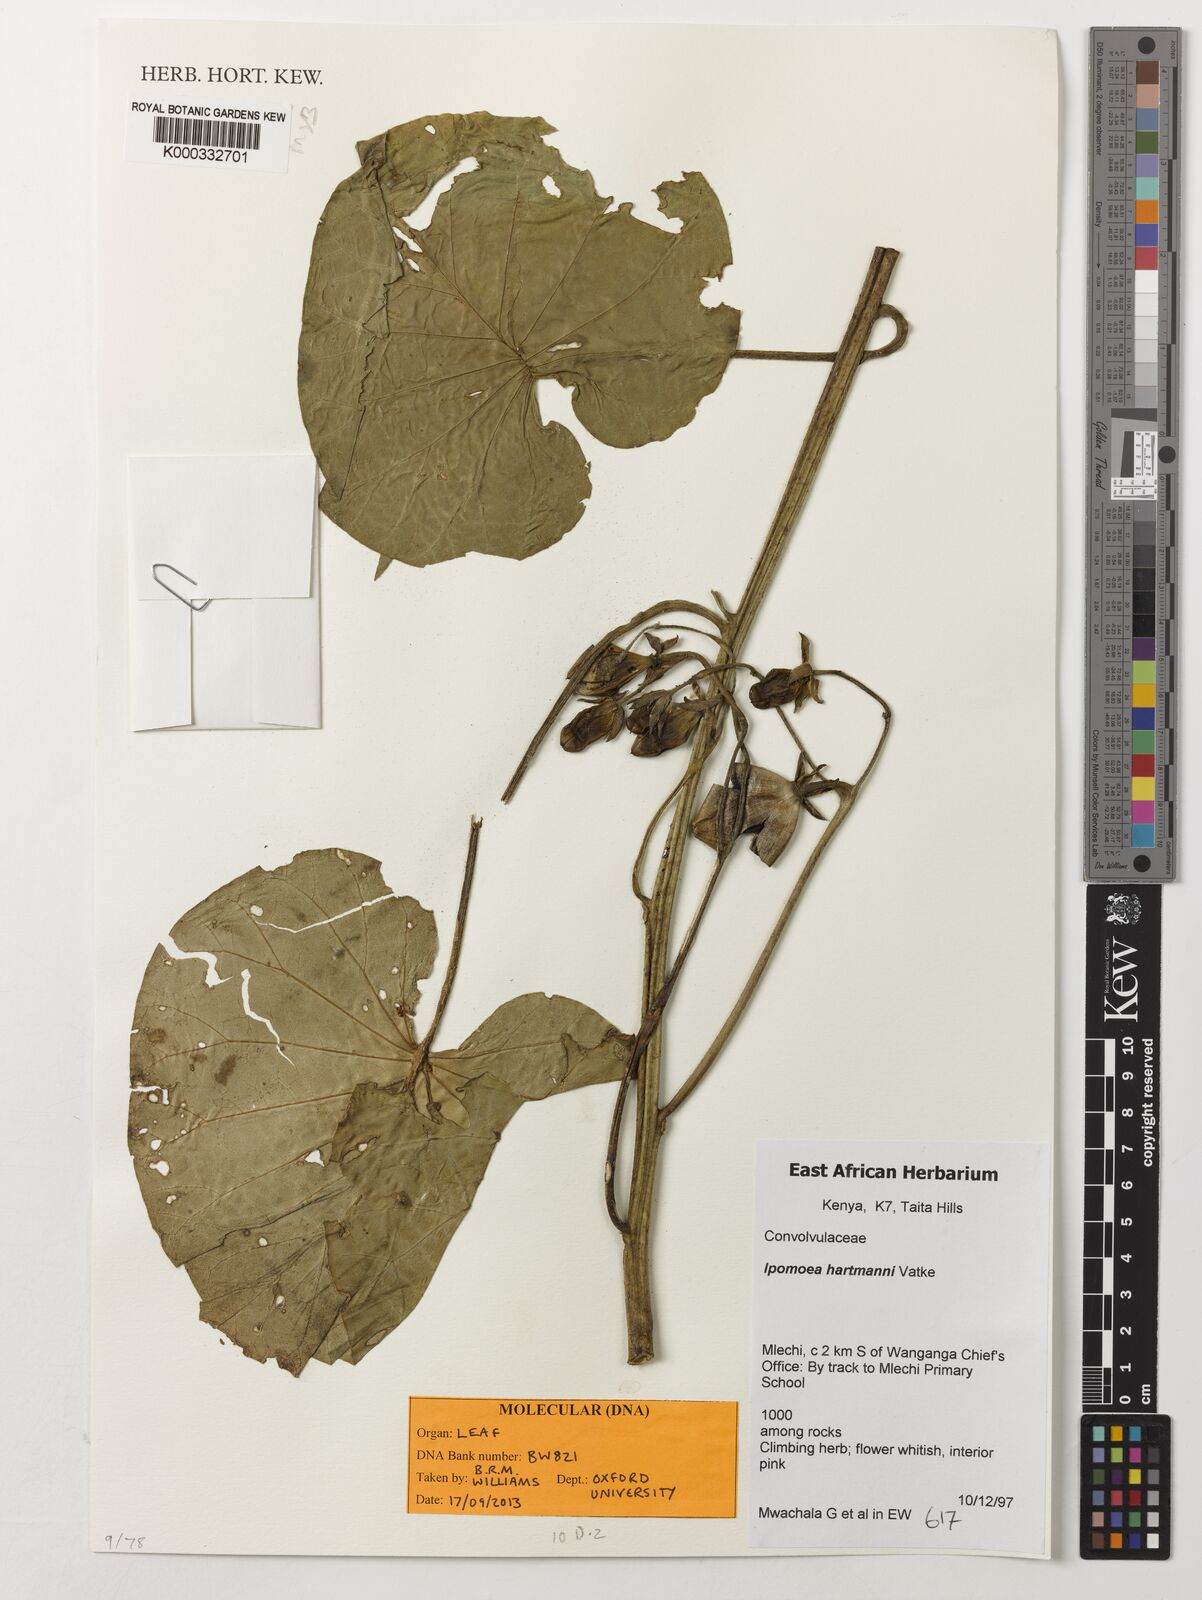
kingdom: Plantae
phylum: Tracheophyta
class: Magnoliopsida
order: Solanales
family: Convolvulaceae
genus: Ipomoea
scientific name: Ipomoea hartmannii
